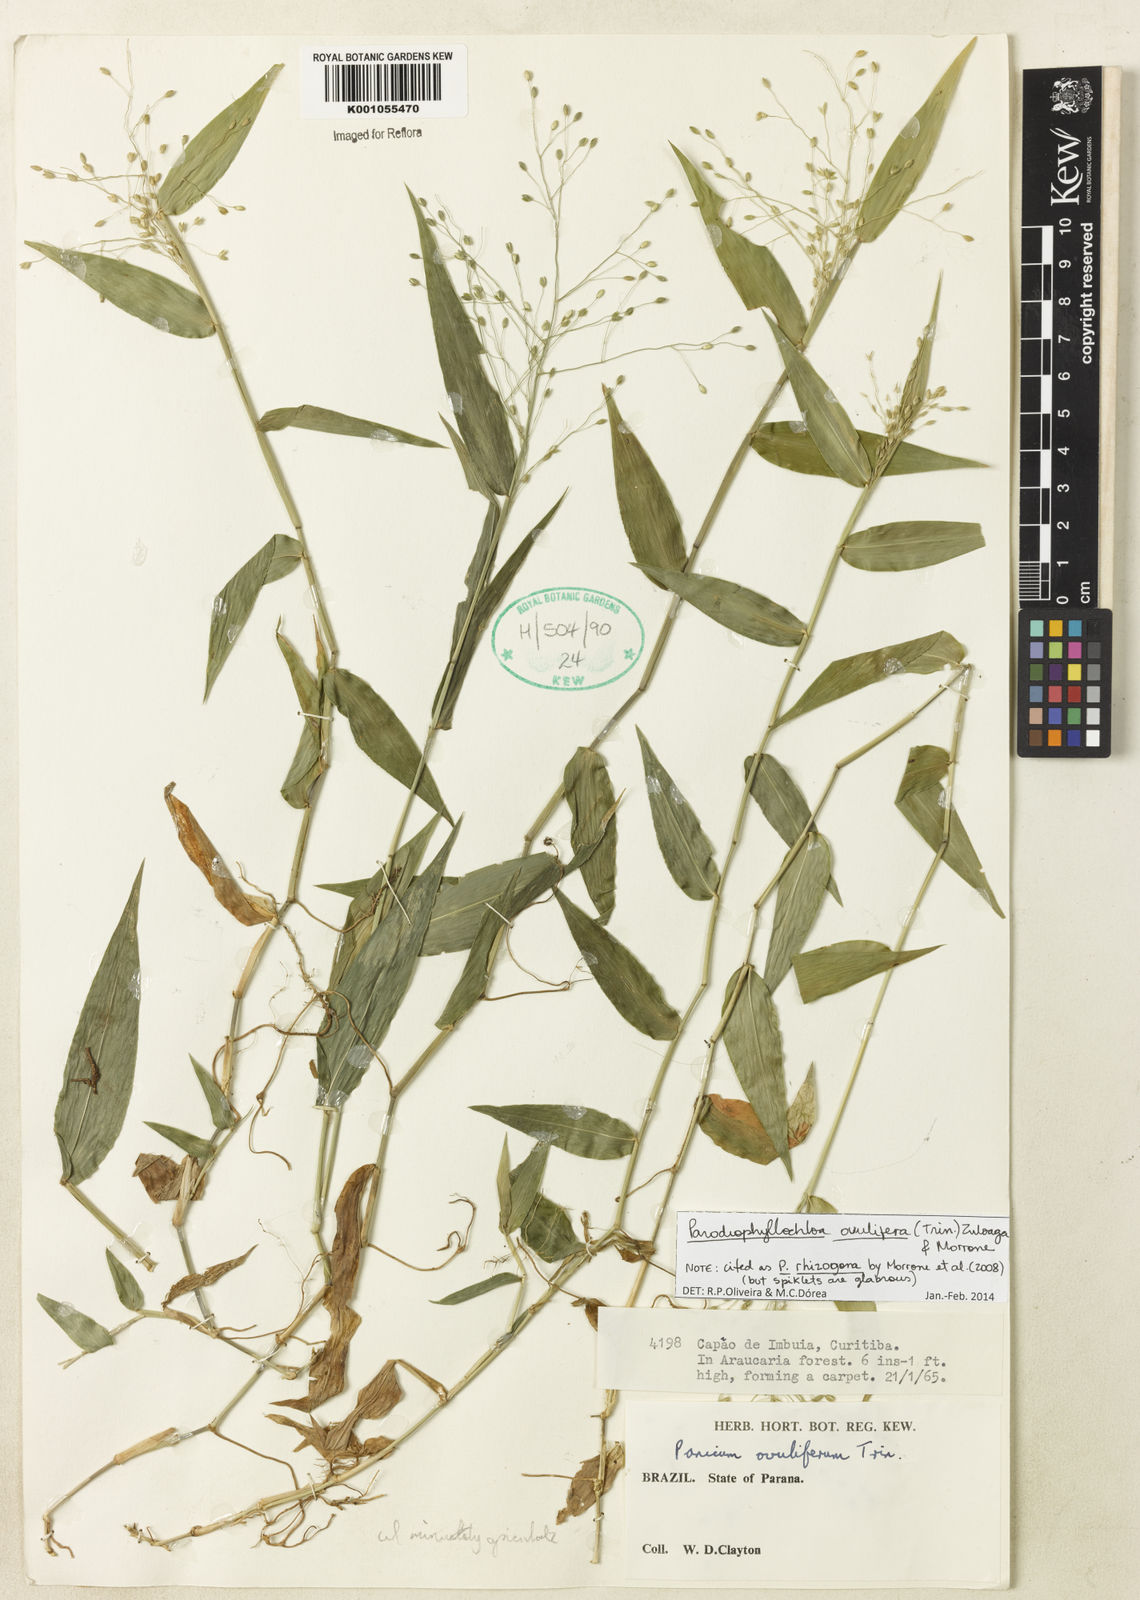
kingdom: Plantae
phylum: Tracheophyta
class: Liliopsida
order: Poales
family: Poaceae
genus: Parodiophyllochloa
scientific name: Parodiophyllochloa ovulifera
